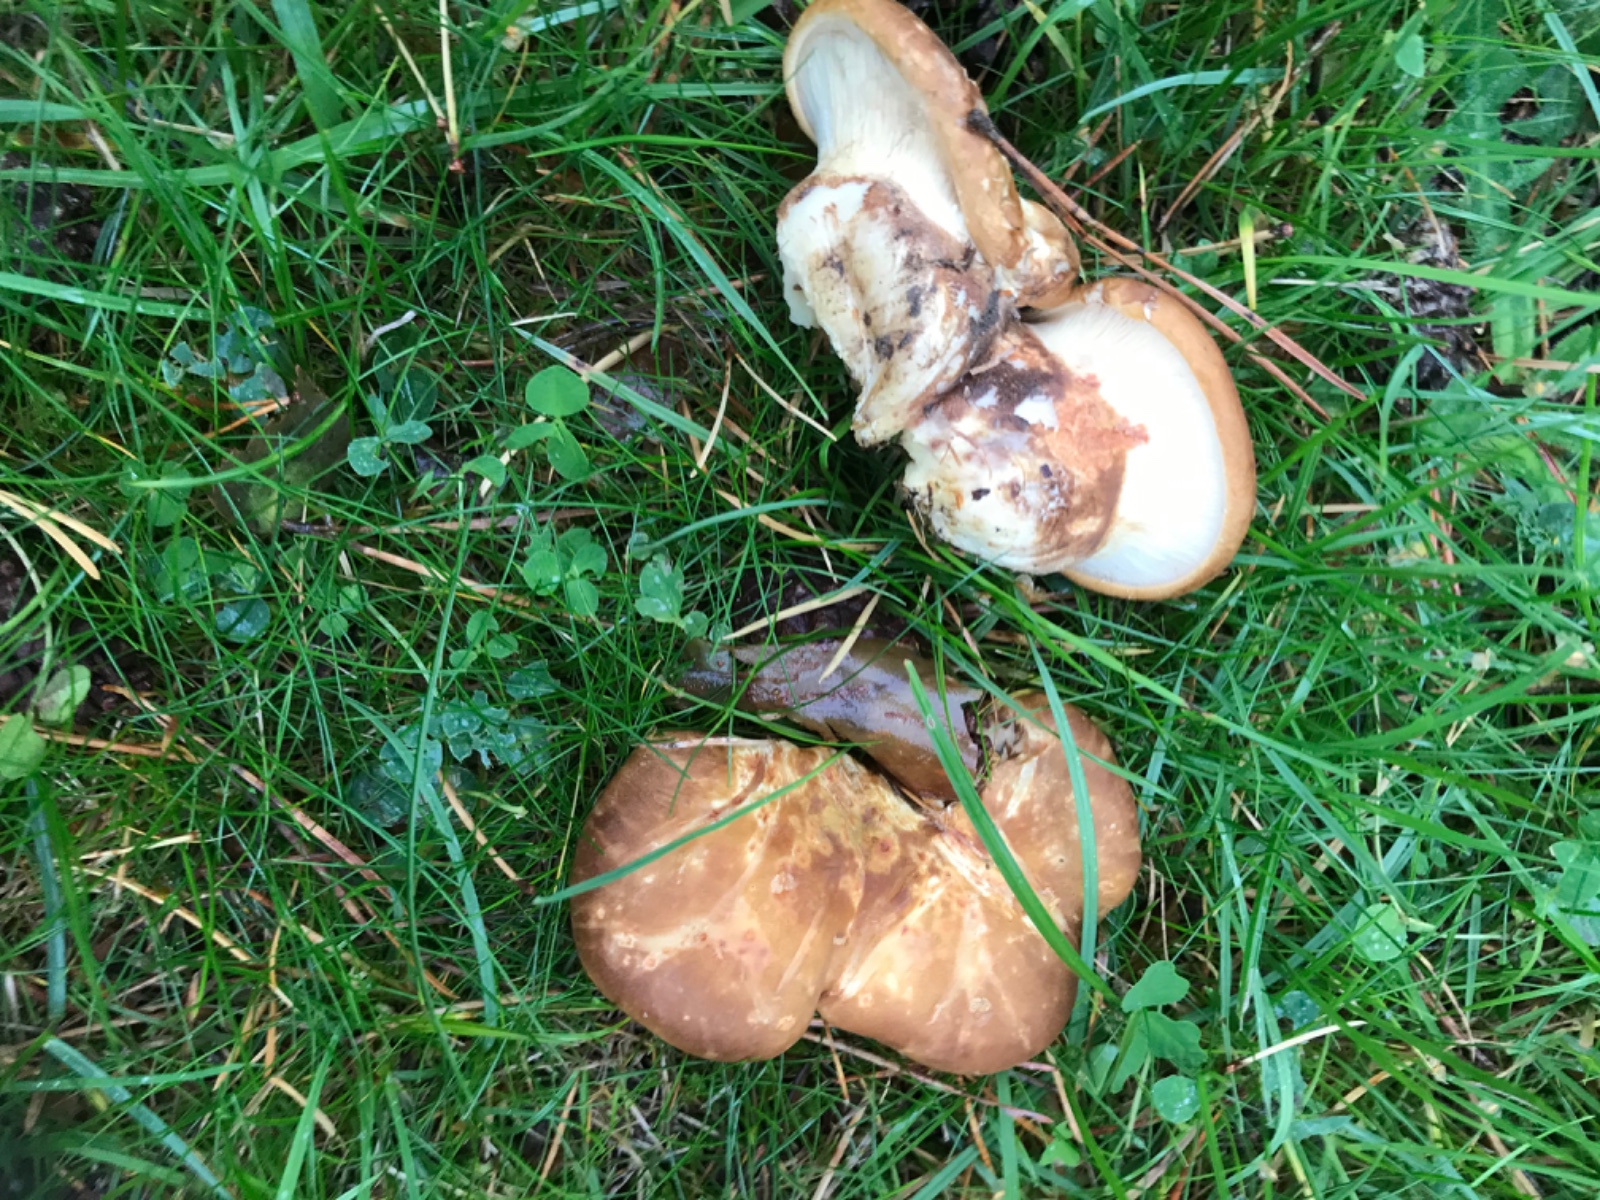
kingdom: Fungi
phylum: Basidiomycota
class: Agaricomycetes
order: Boletales
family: Tapinellaceae
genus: Tapinella
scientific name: Tapinella atrotomentosa
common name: sortfiltet viftesvamp
